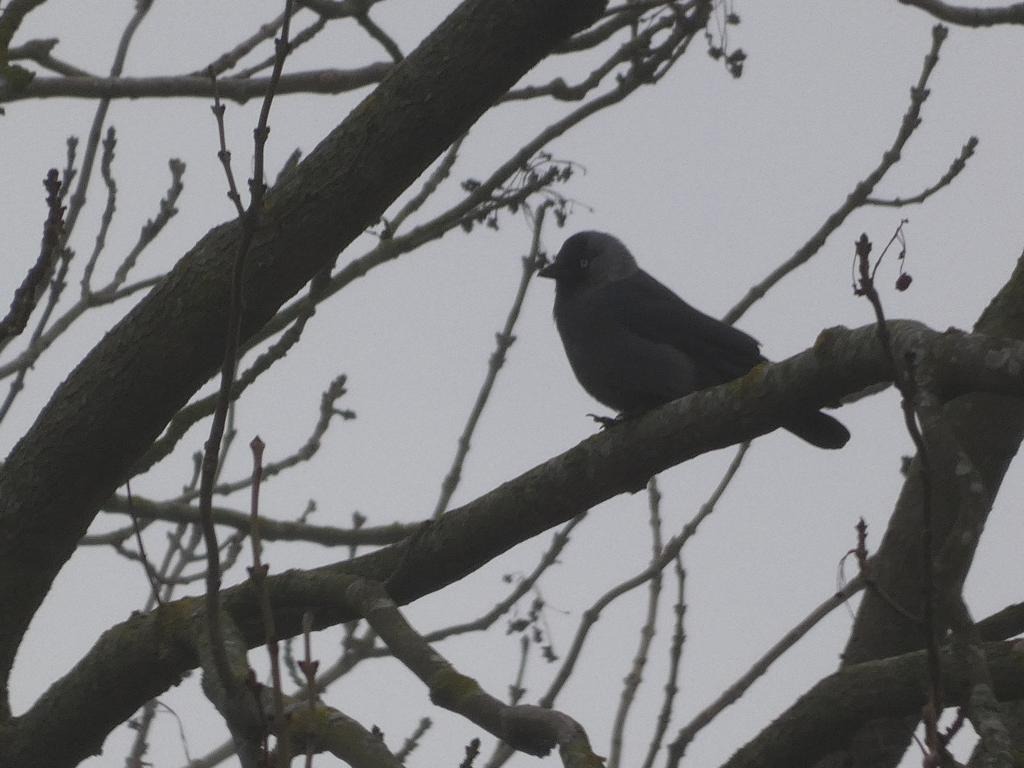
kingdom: Animalia
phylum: Chordata
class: Aves
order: Passeriformes
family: Corvidae
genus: Coloeus
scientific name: Coloeus monedula
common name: Allike
